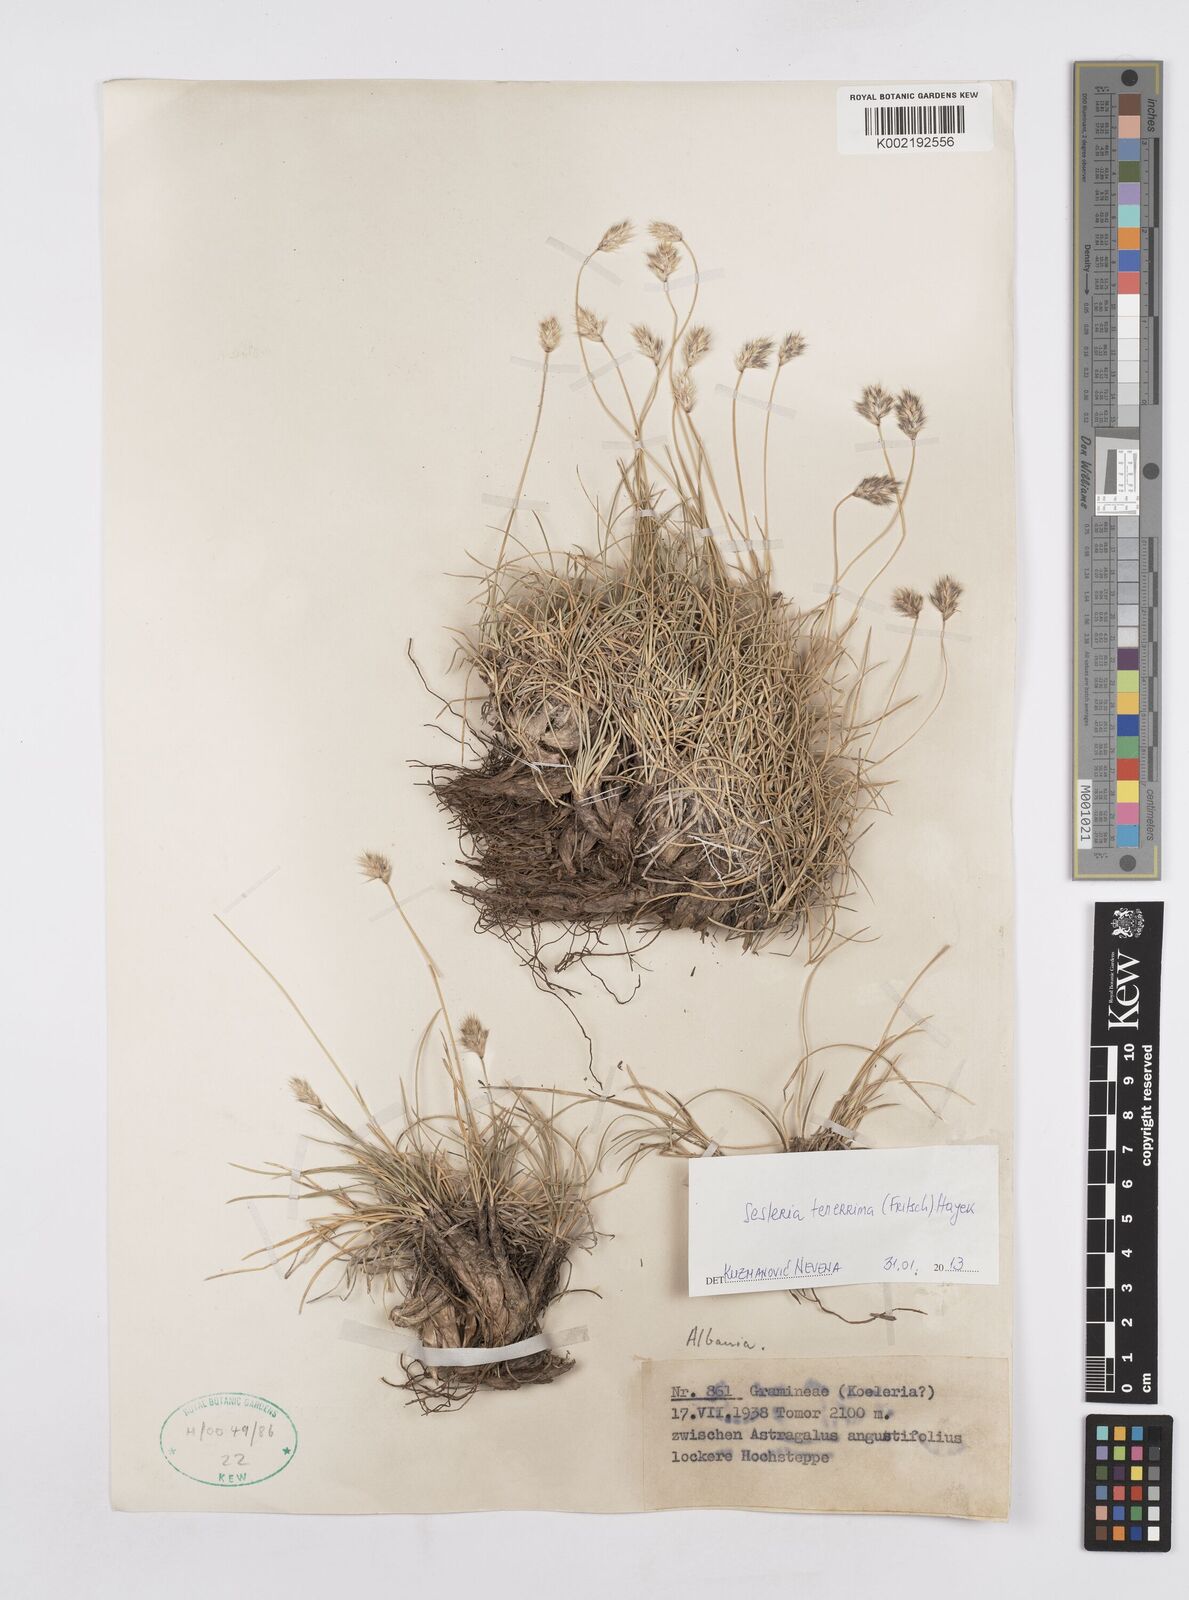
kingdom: Plantae
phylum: Tracheophyta
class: Liliopsida
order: Poales
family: Poaceae
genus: Sesleria
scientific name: Sesleria tenerrima
